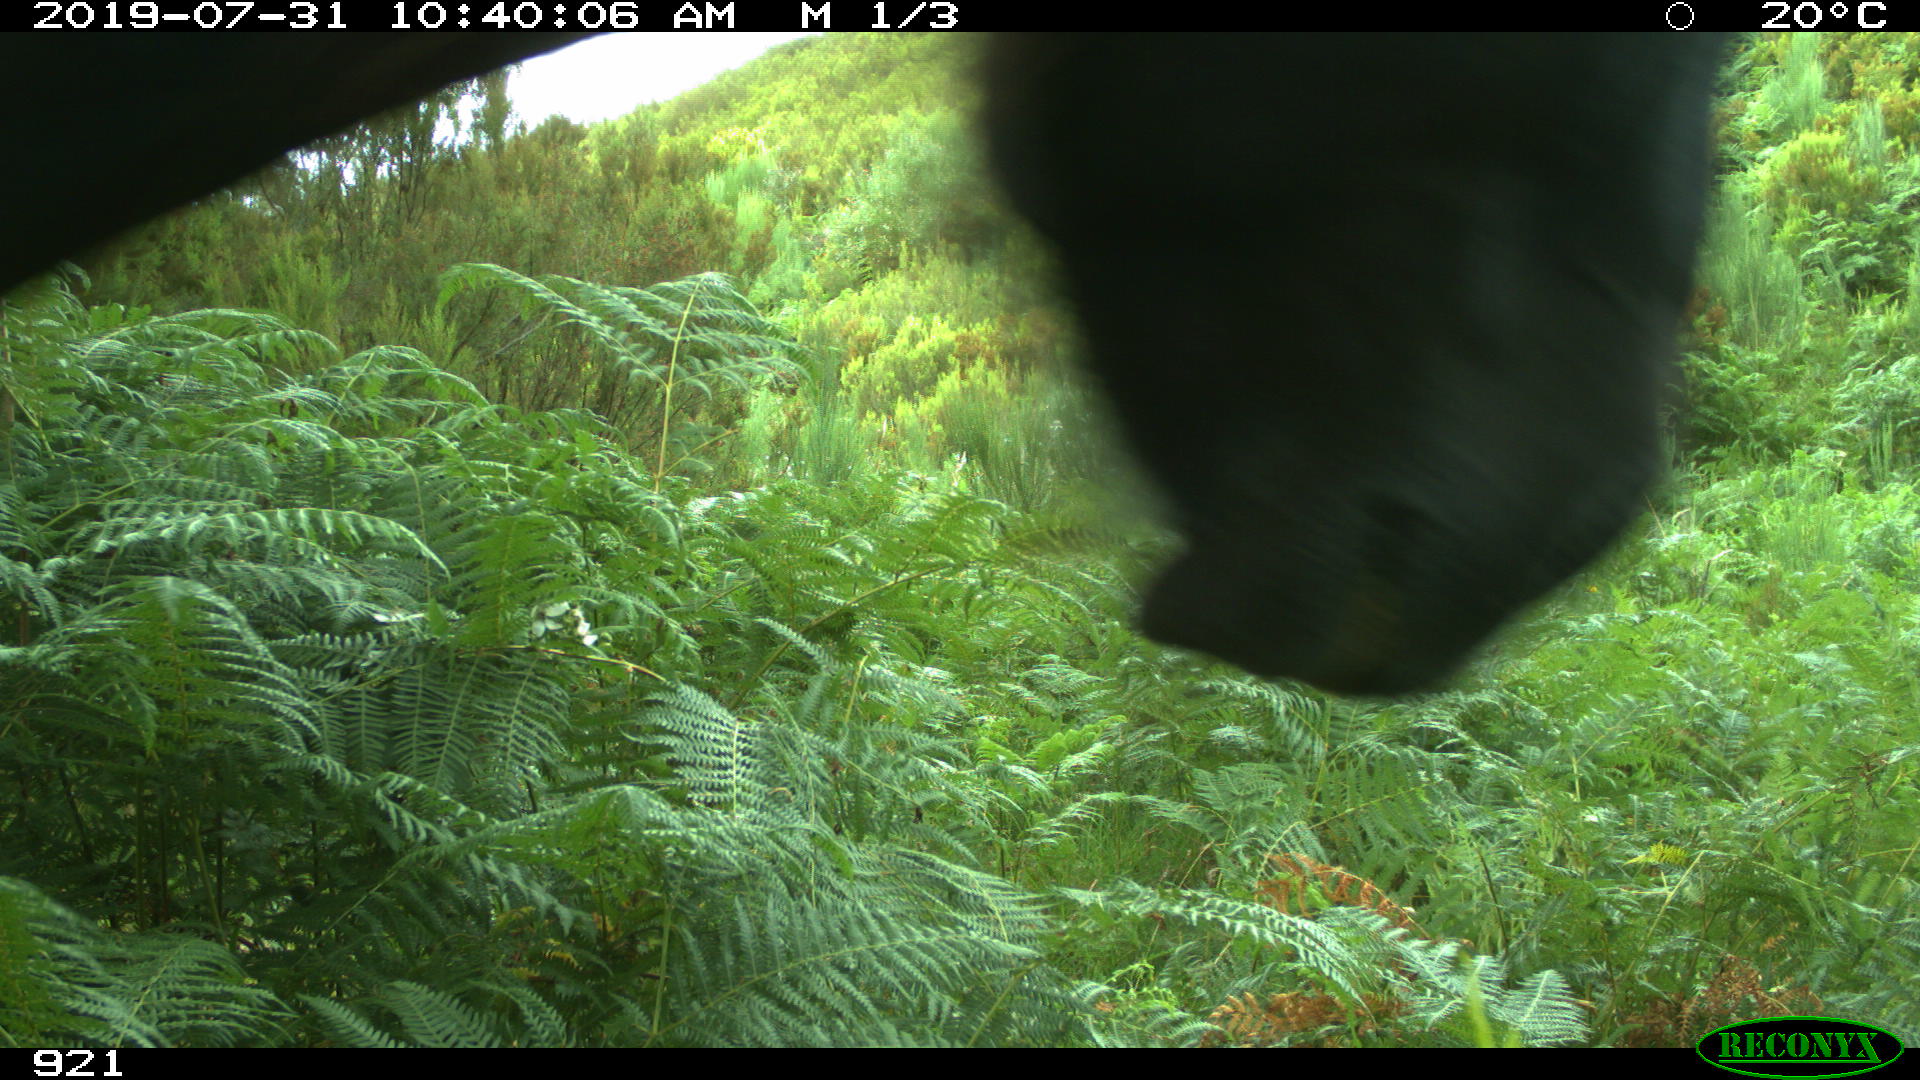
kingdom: Animalia
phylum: Chordata
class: Mammalia
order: Perissodactyla
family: Equidae
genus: Equus
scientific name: Equus caballus
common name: Horse
